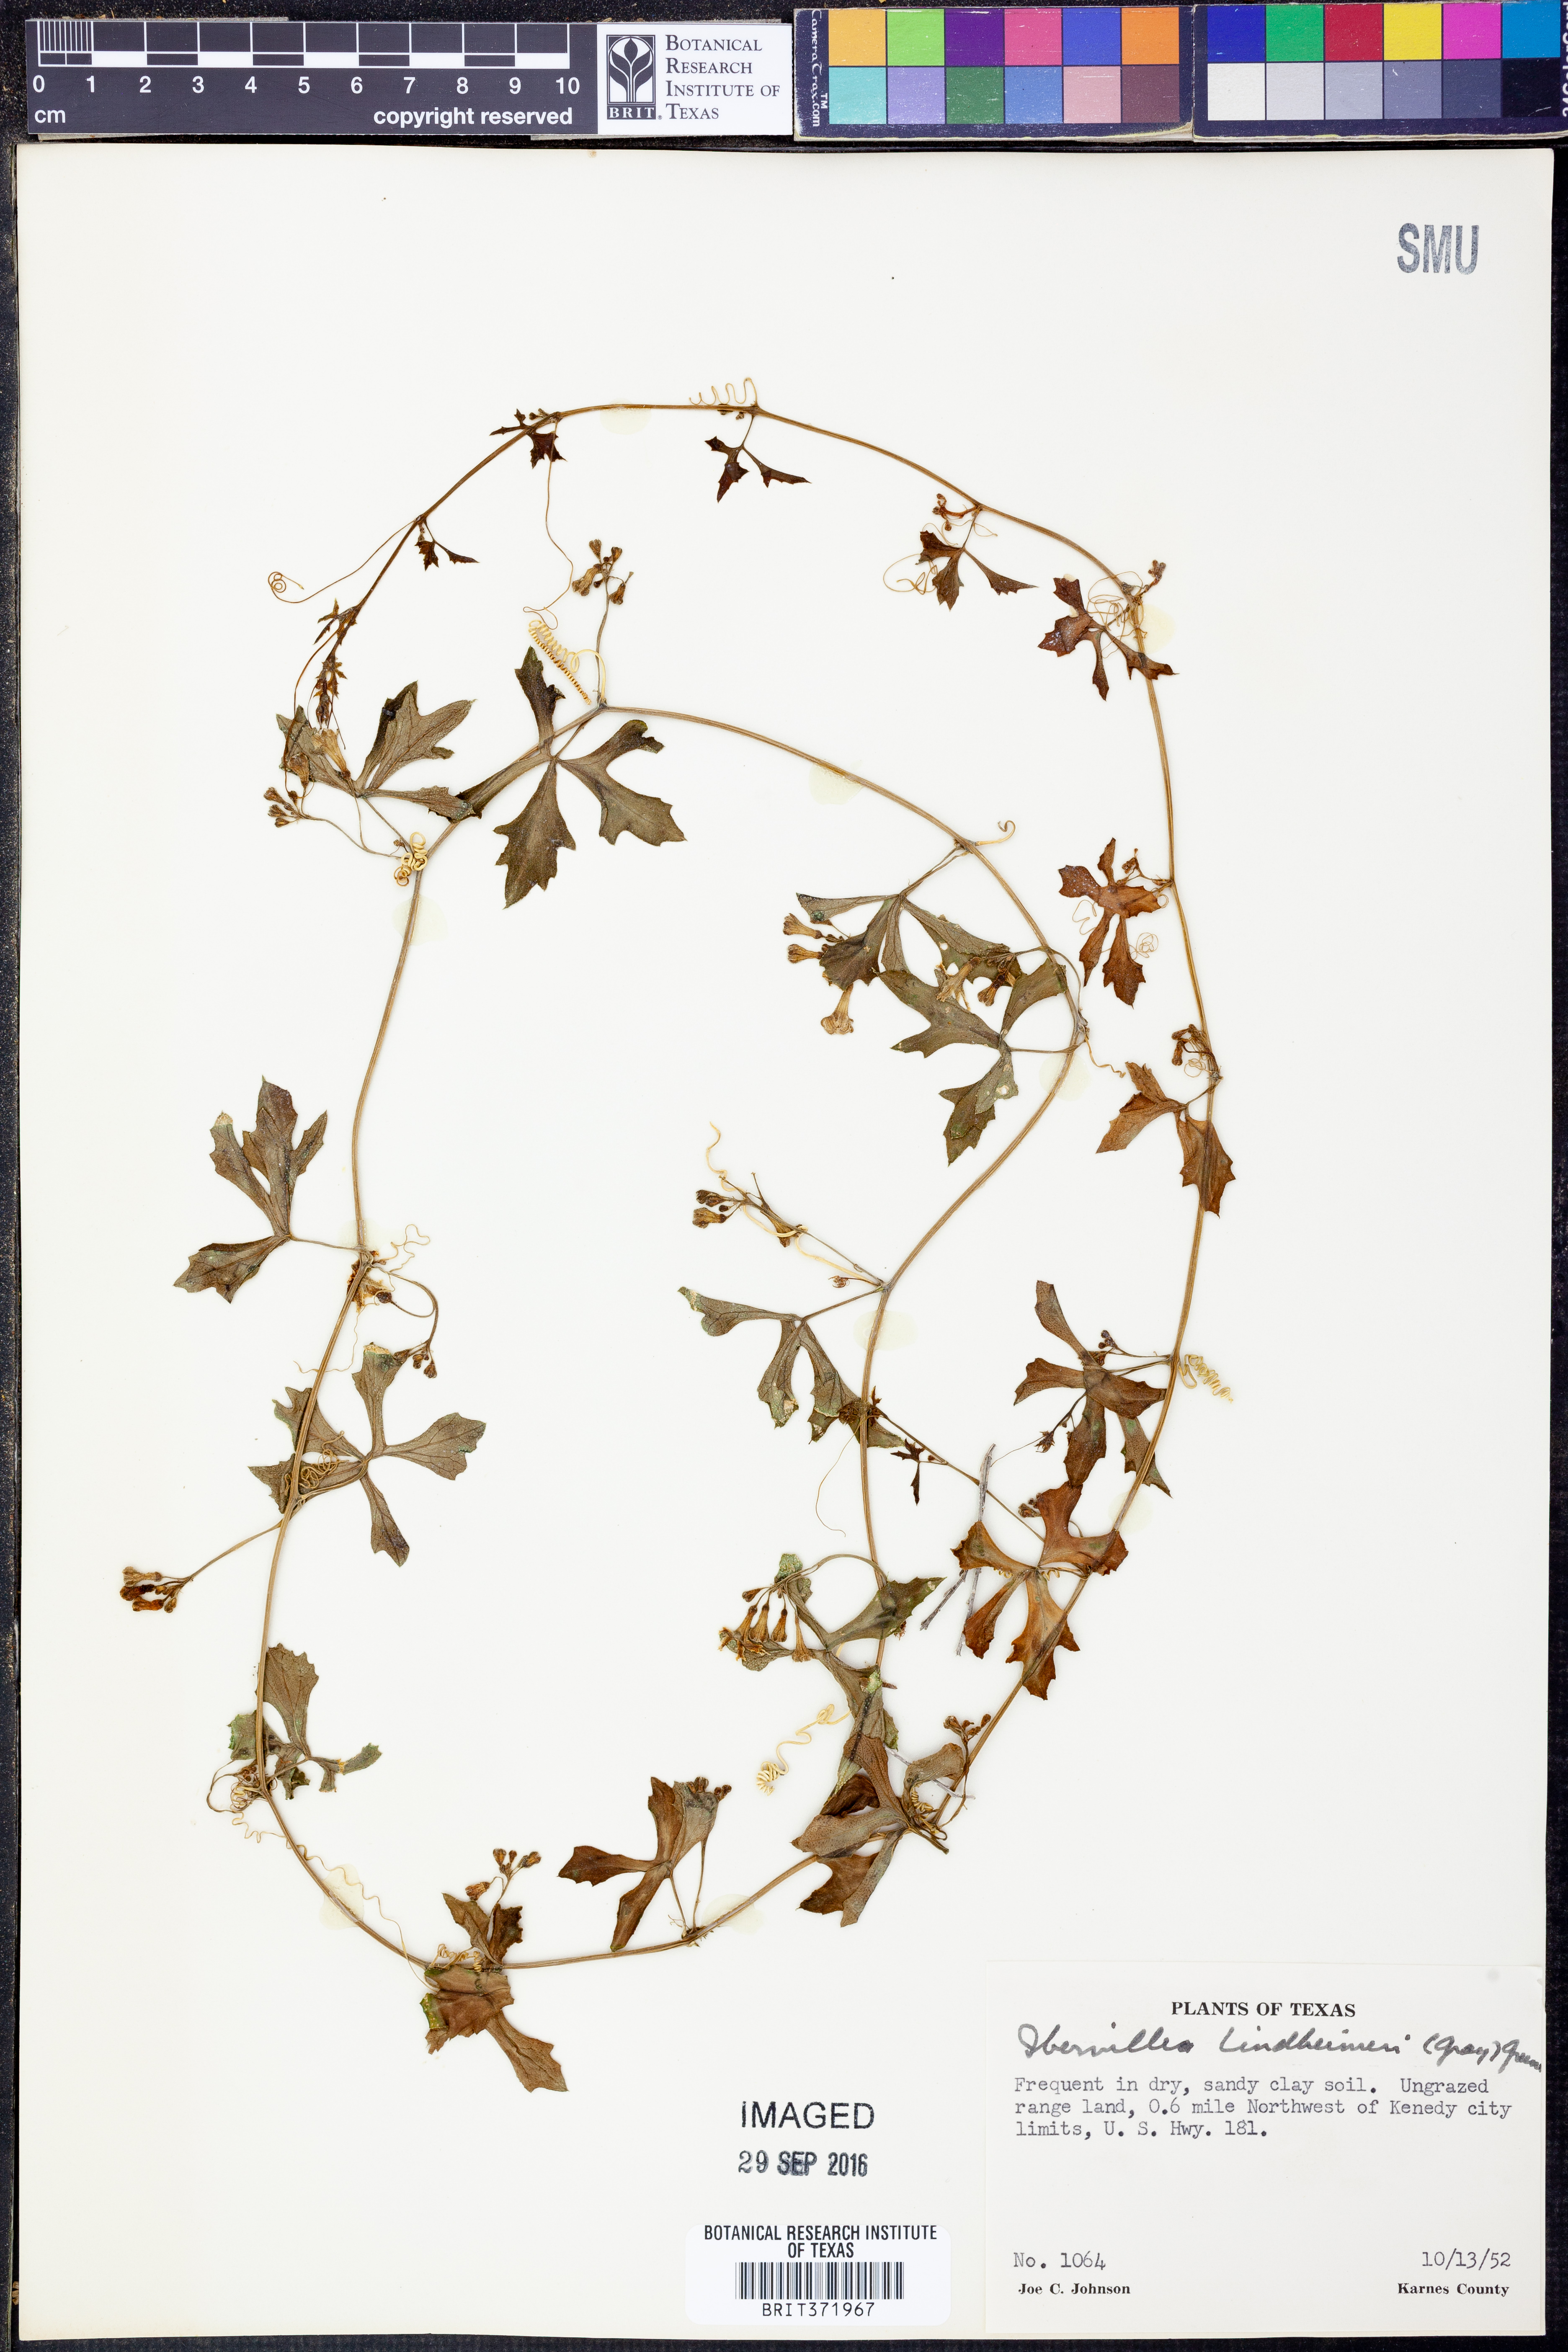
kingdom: Plantae
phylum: Tracheophyta
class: Magnoliopsida
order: Cucurbitales
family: Cucurbitaceae
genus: Ibervillea
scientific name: Ibervillea lindheimeri
